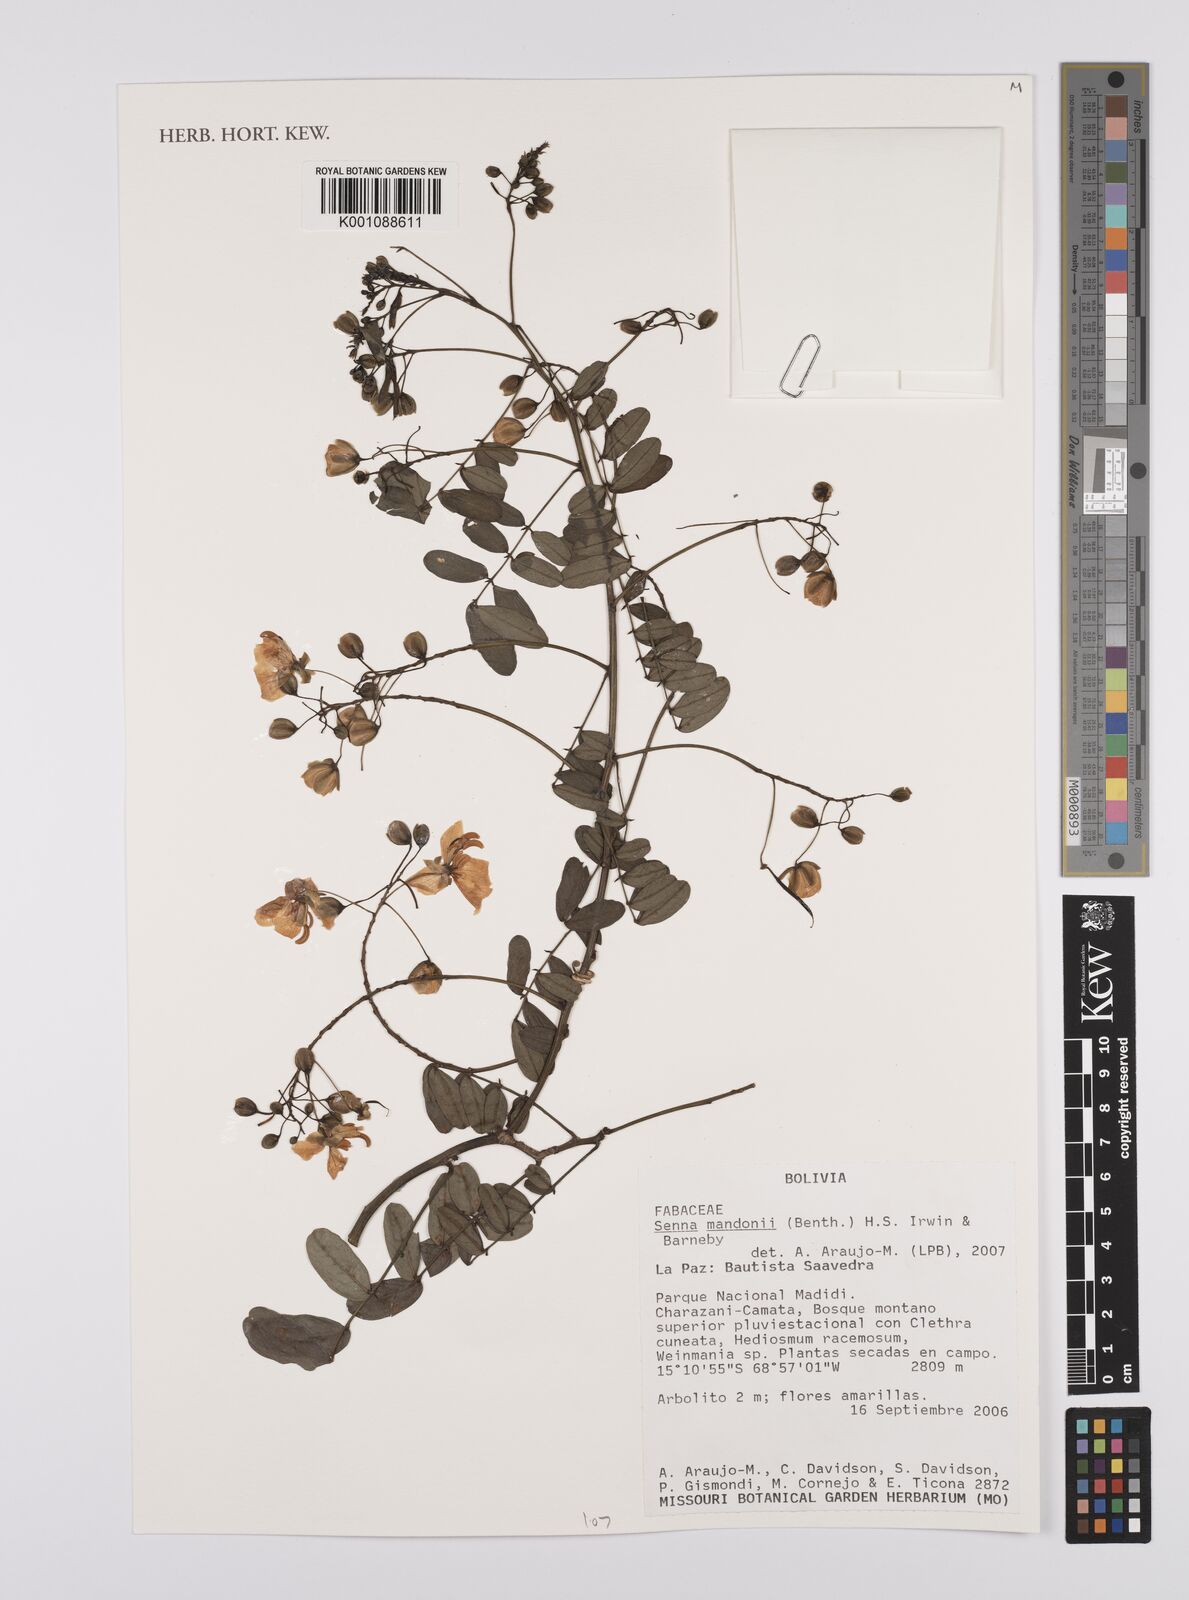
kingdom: Plantae
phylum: Tracheophyta
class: Magnoliopsida
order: Fabales
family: Fabaceae
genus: Senna
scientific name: Senna mandonii
